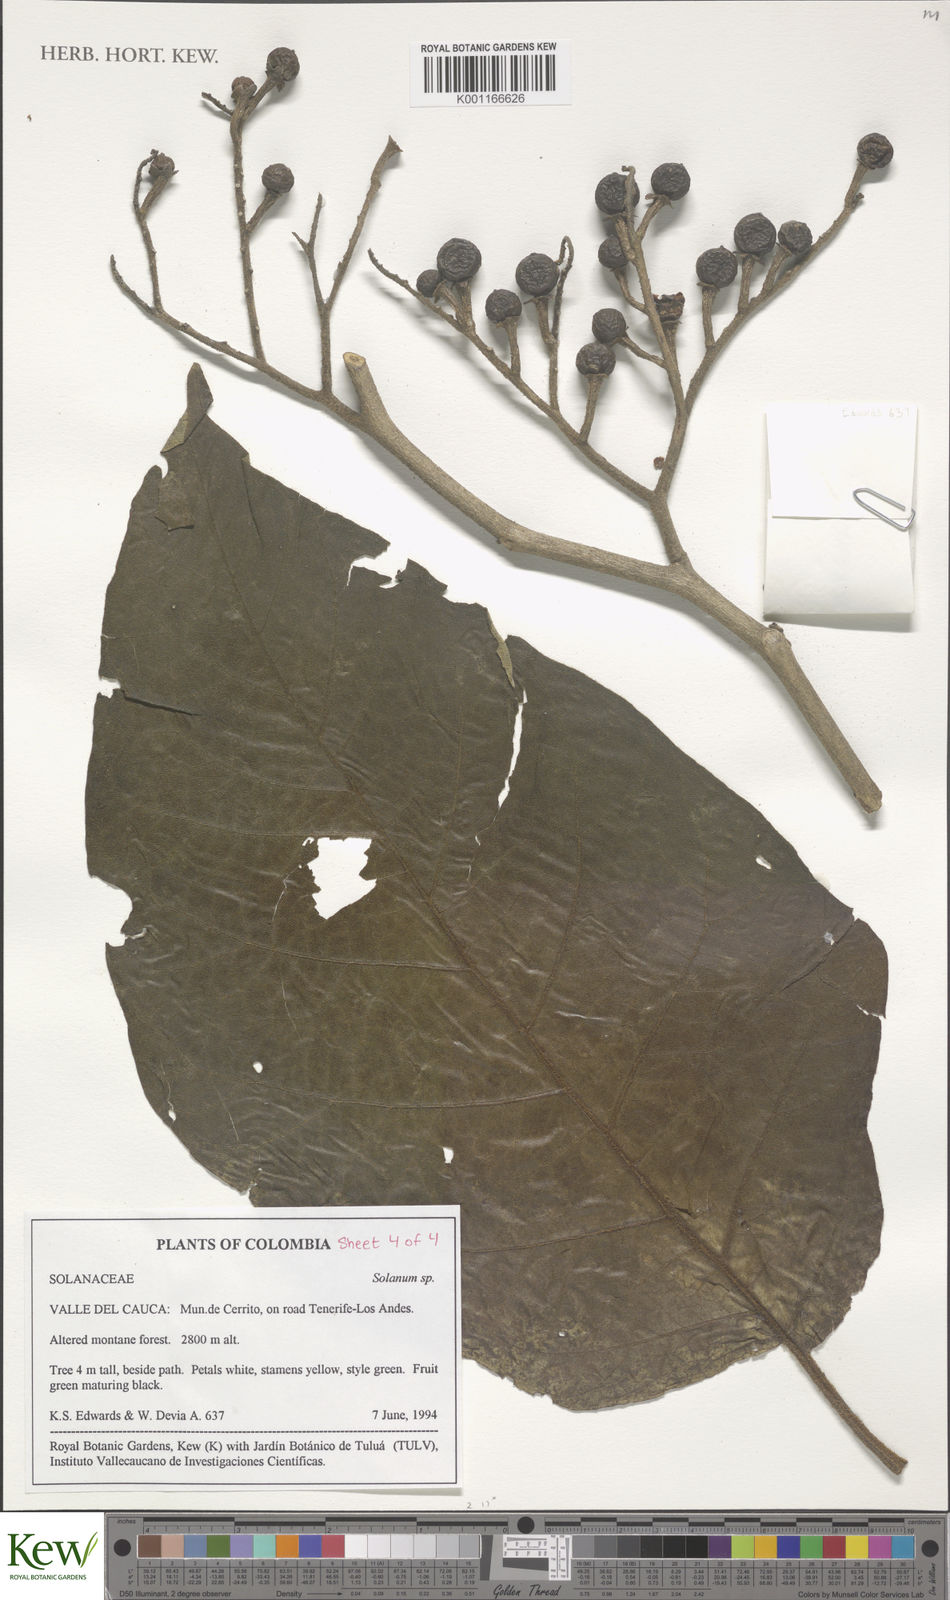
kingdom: Plantae
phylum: Tracheophyta
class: Magnoliopsida
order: Solanales
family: Solanaceae
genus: Solanum
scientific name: Solanum
